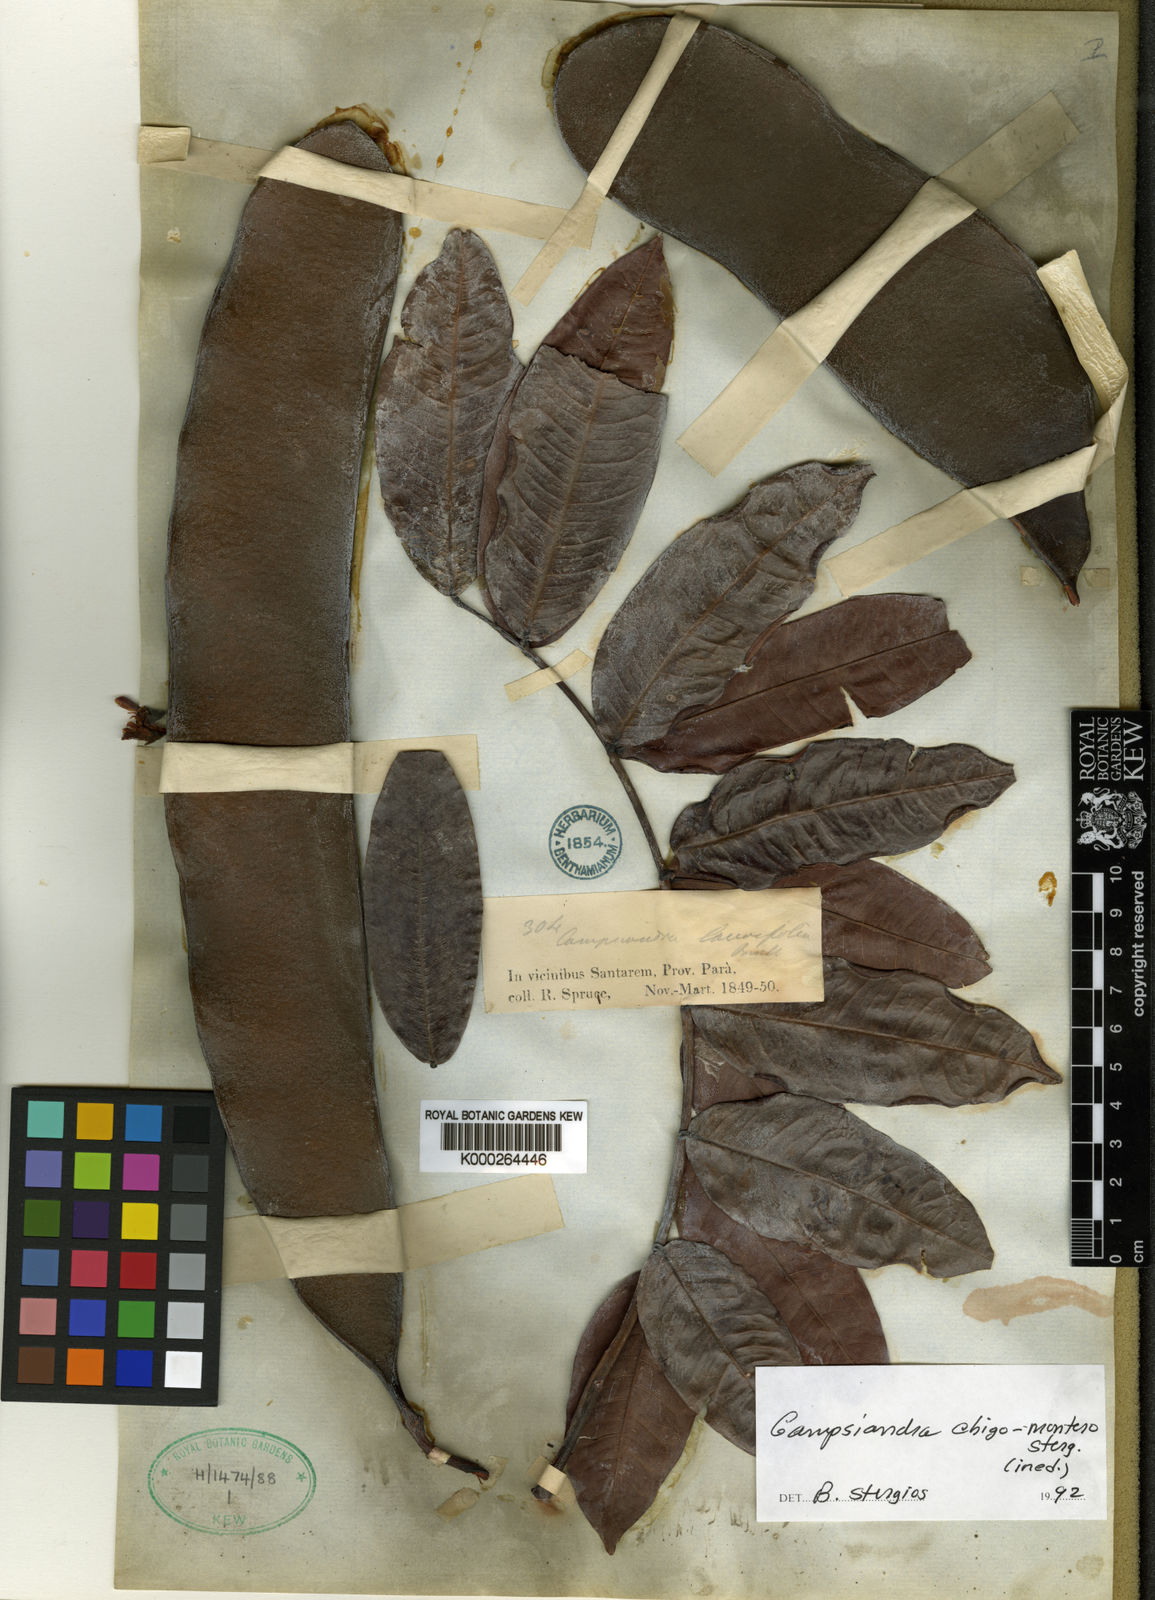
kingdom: Plantae
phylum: Tracheophyta
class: Magnoliopsida
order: Fabales
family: Fabaceae
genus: Campsiandra
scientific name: Campsiandra chigo-montero
